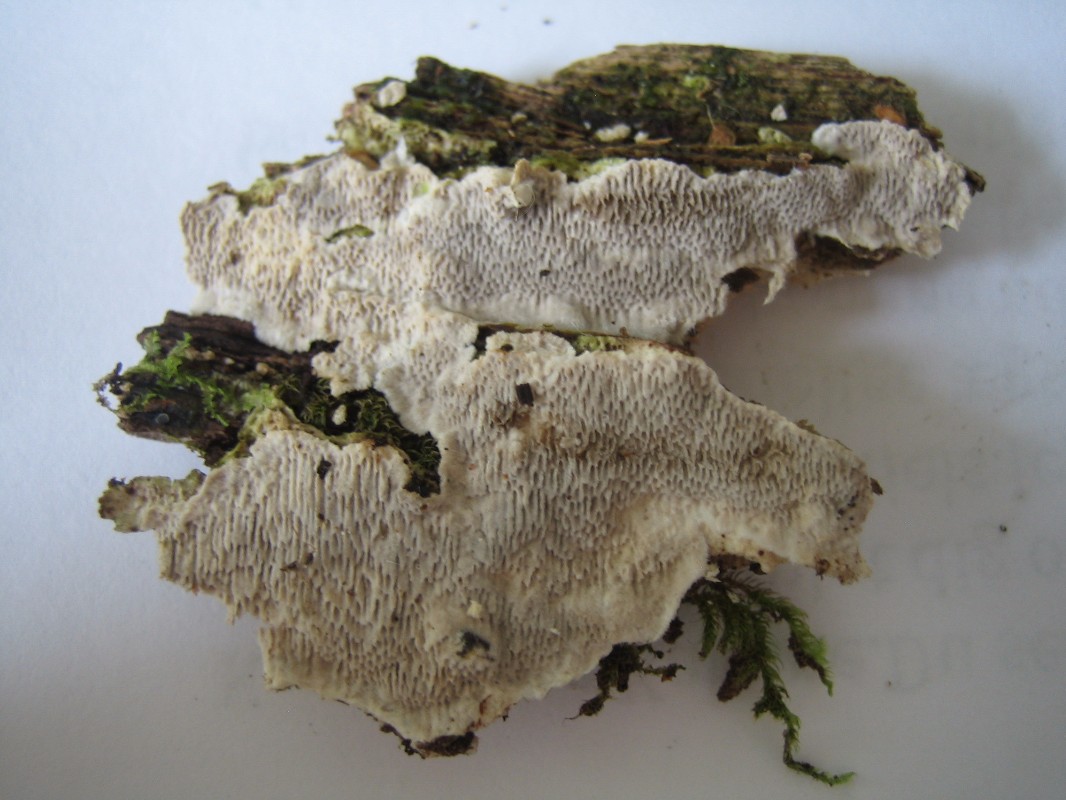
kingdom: Fungi
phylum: Basidiomycota
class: Agaricomycetes
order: Polyporales
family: Gelatoporiaceae
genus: Cinereomyces
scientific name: Cinereomyces lindbladii
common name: almindelig gråporesvamp
